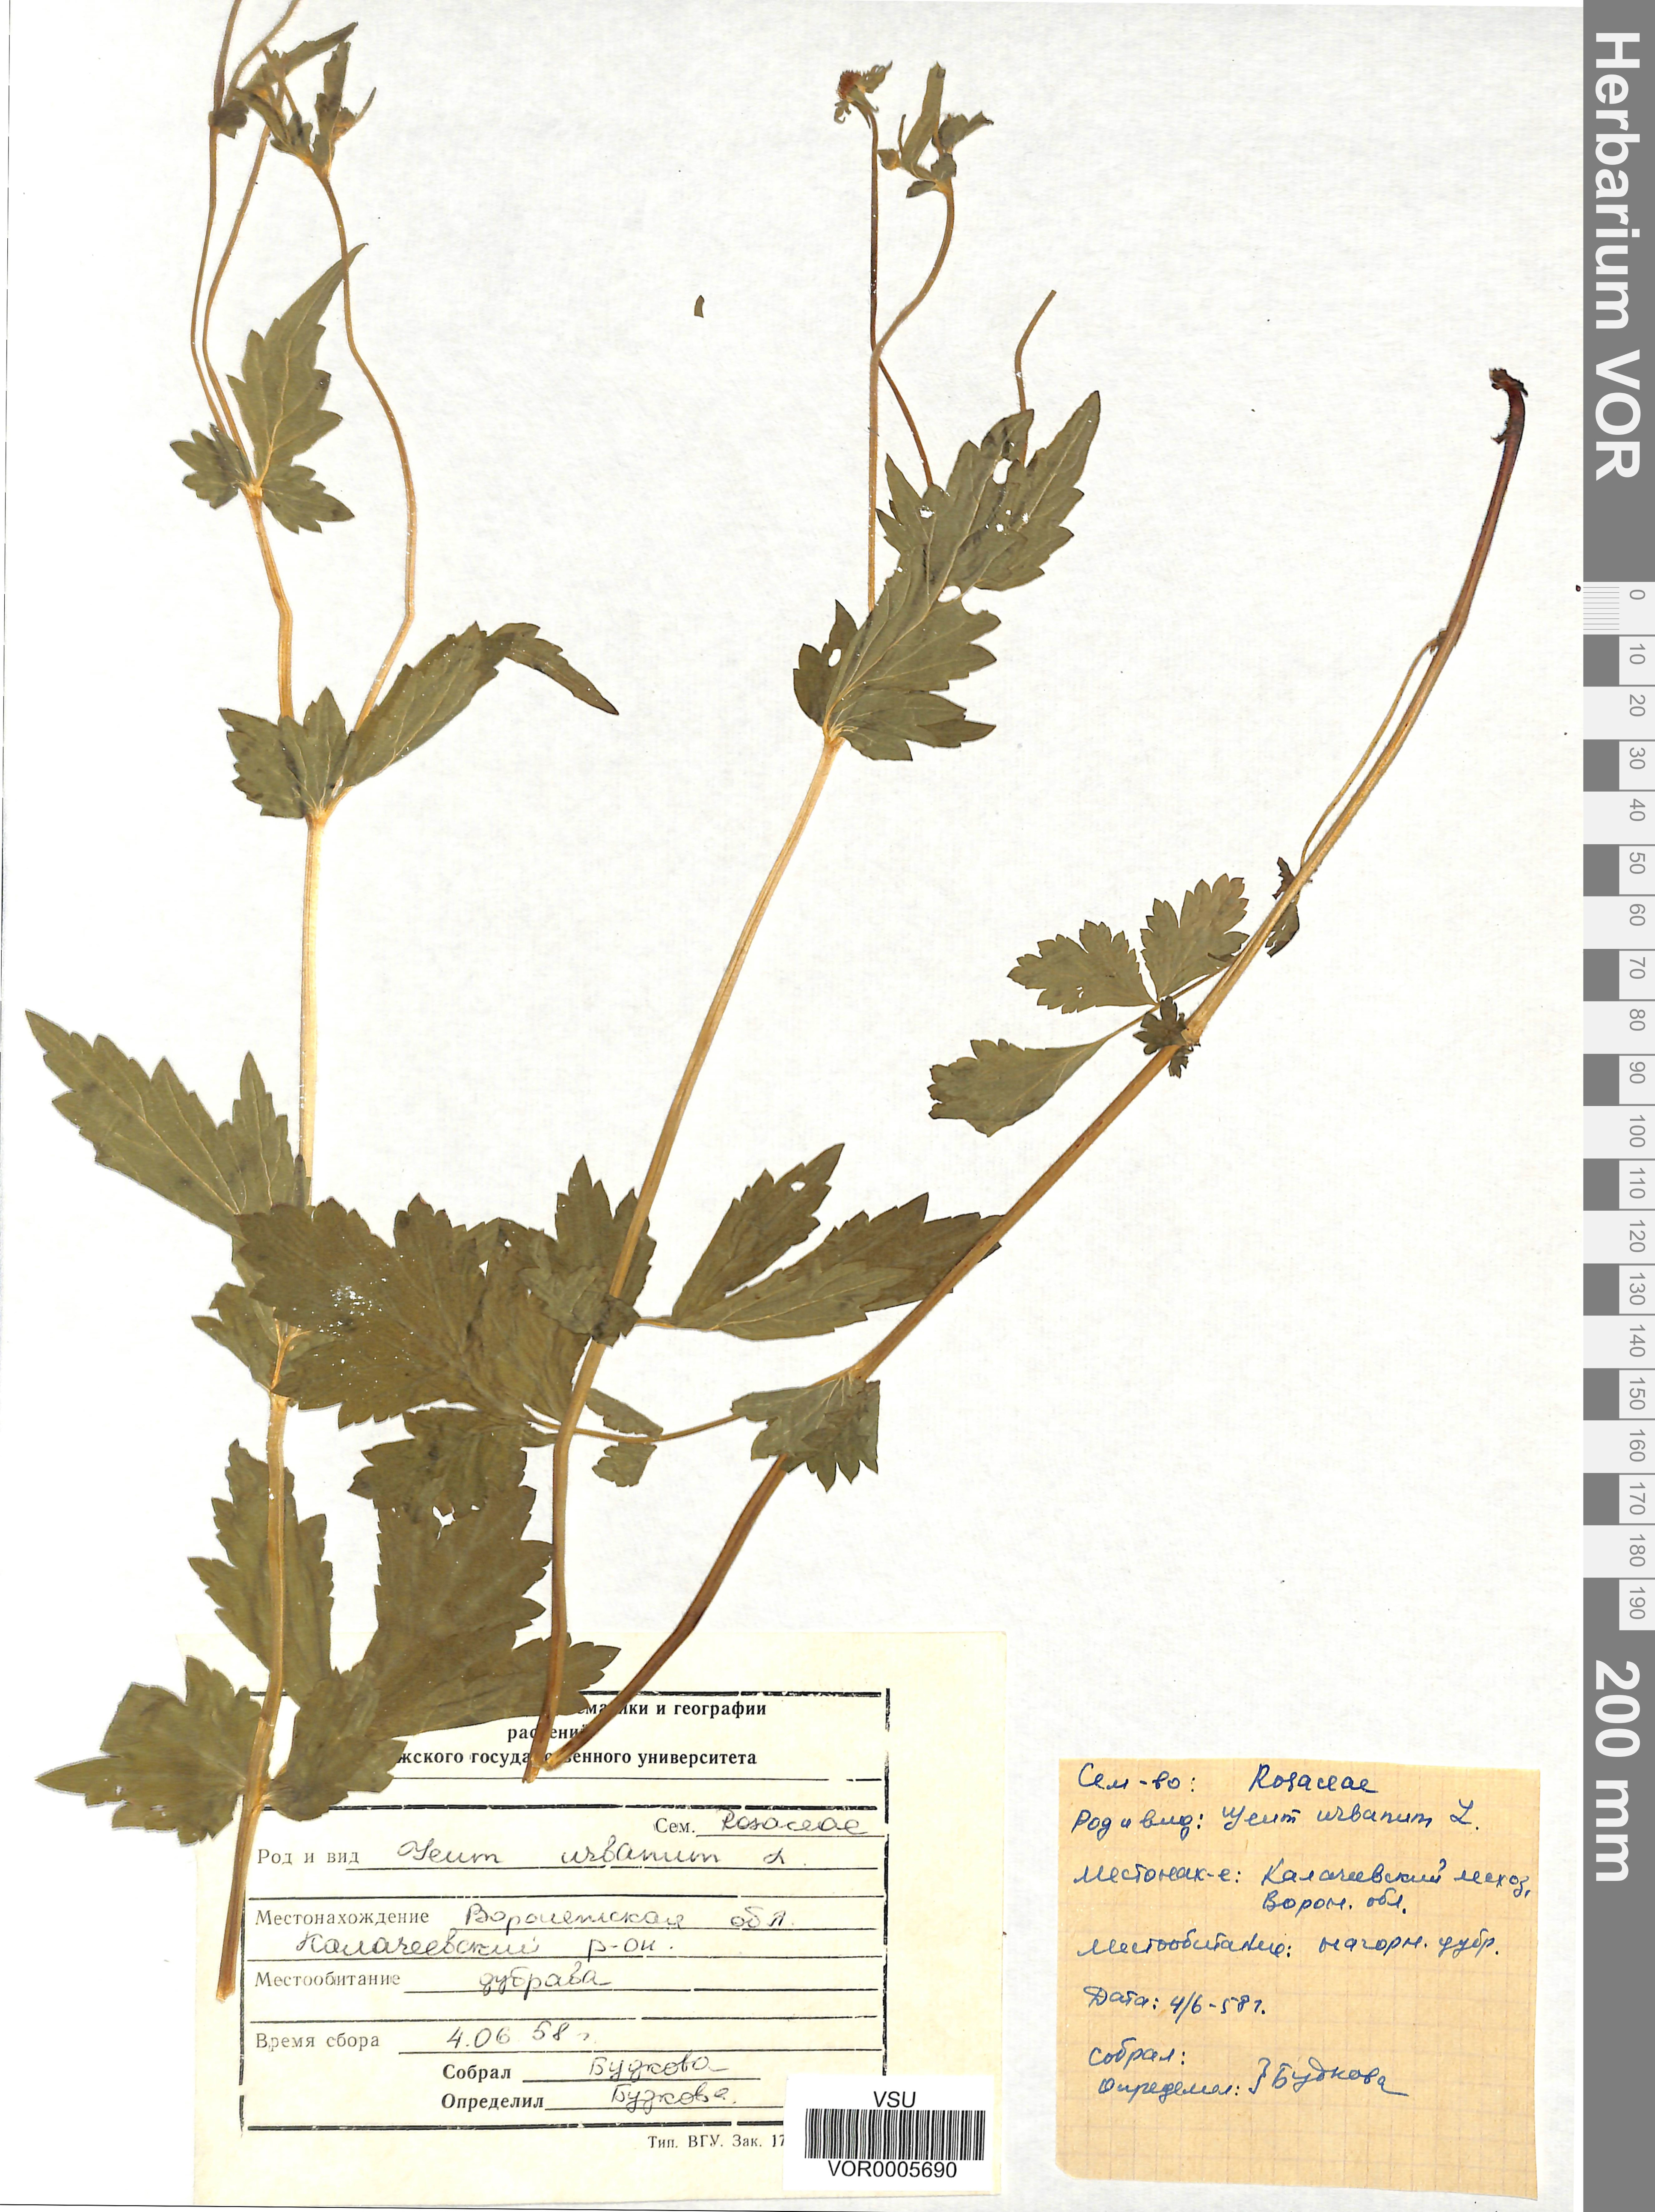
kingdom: Plantae
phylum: Tracheophyta
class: Magnoliopsida
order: Rosales
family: Rosaceae
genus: Geum
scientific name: Geum urbanum
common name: Wood avens
